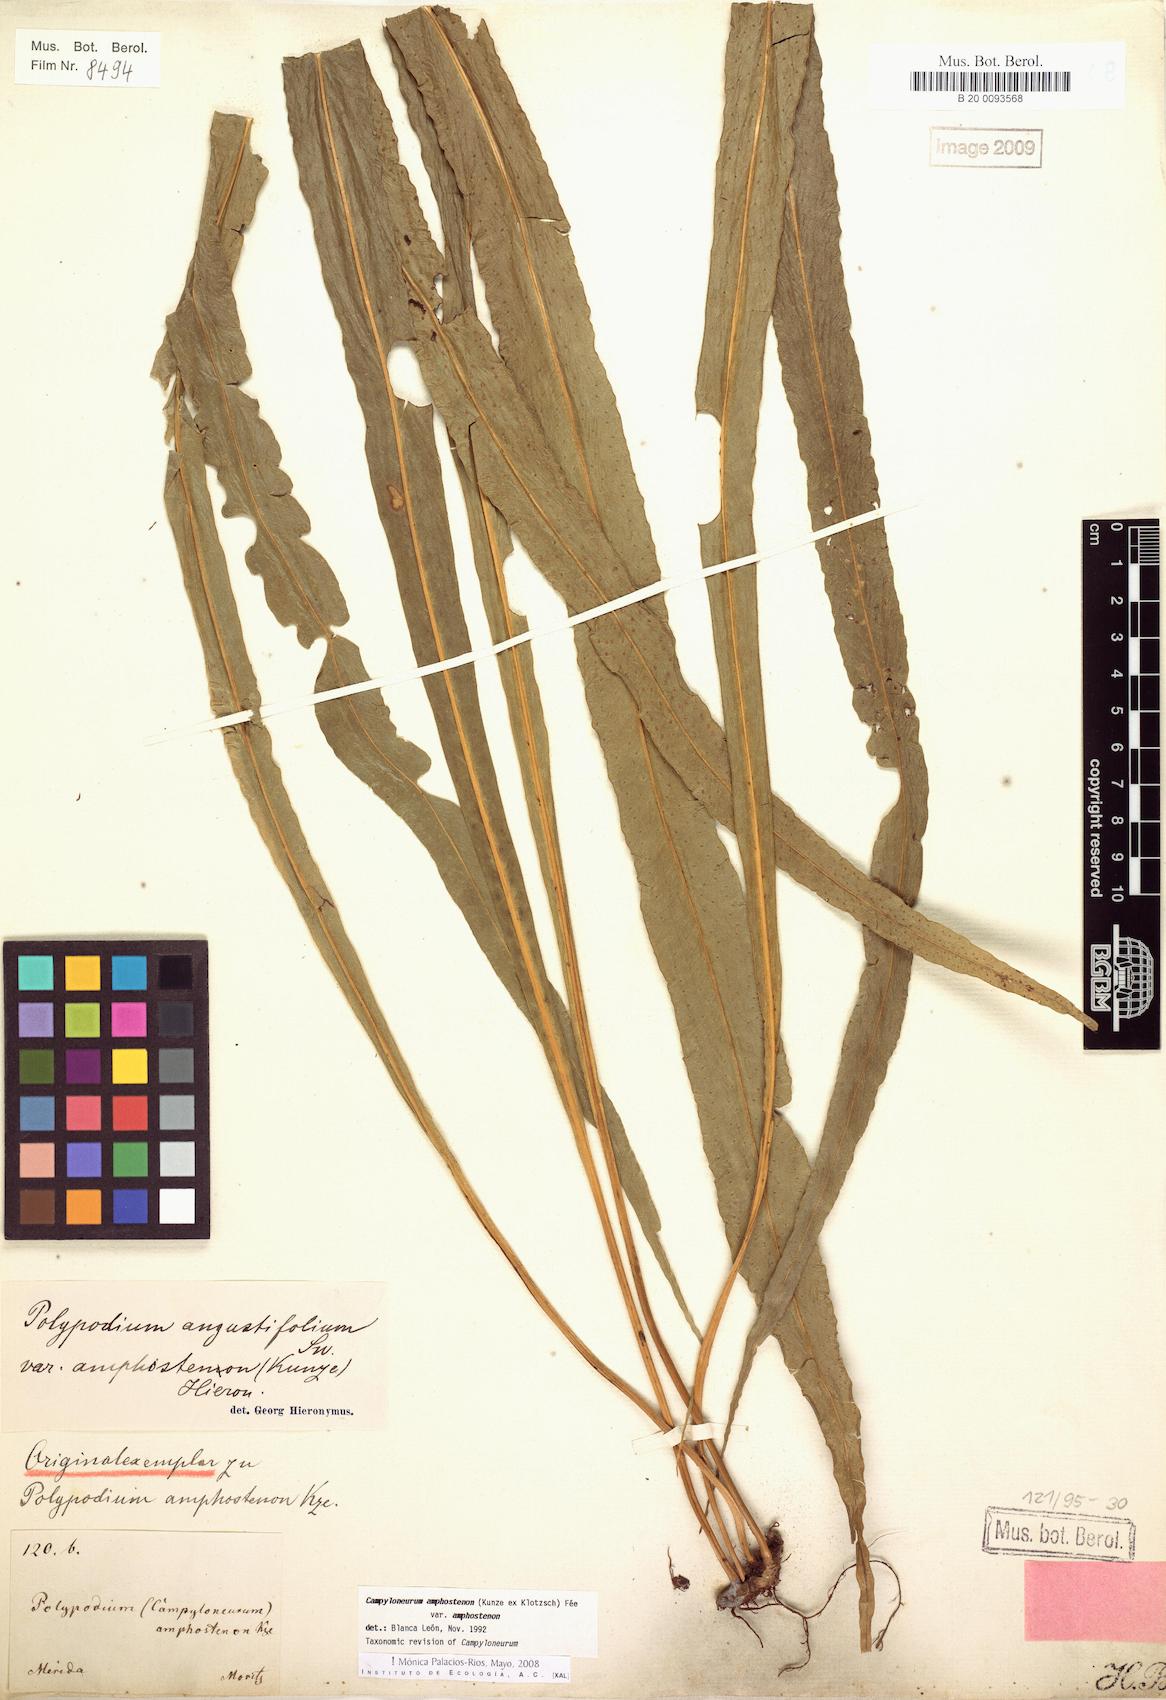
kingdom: Plantae
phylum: Tracheophyta
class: Polypodiopsida
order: Polypodiales
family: Polypodiaceae
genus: Campyloneurum
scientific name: Campyloneurum amphostenon
